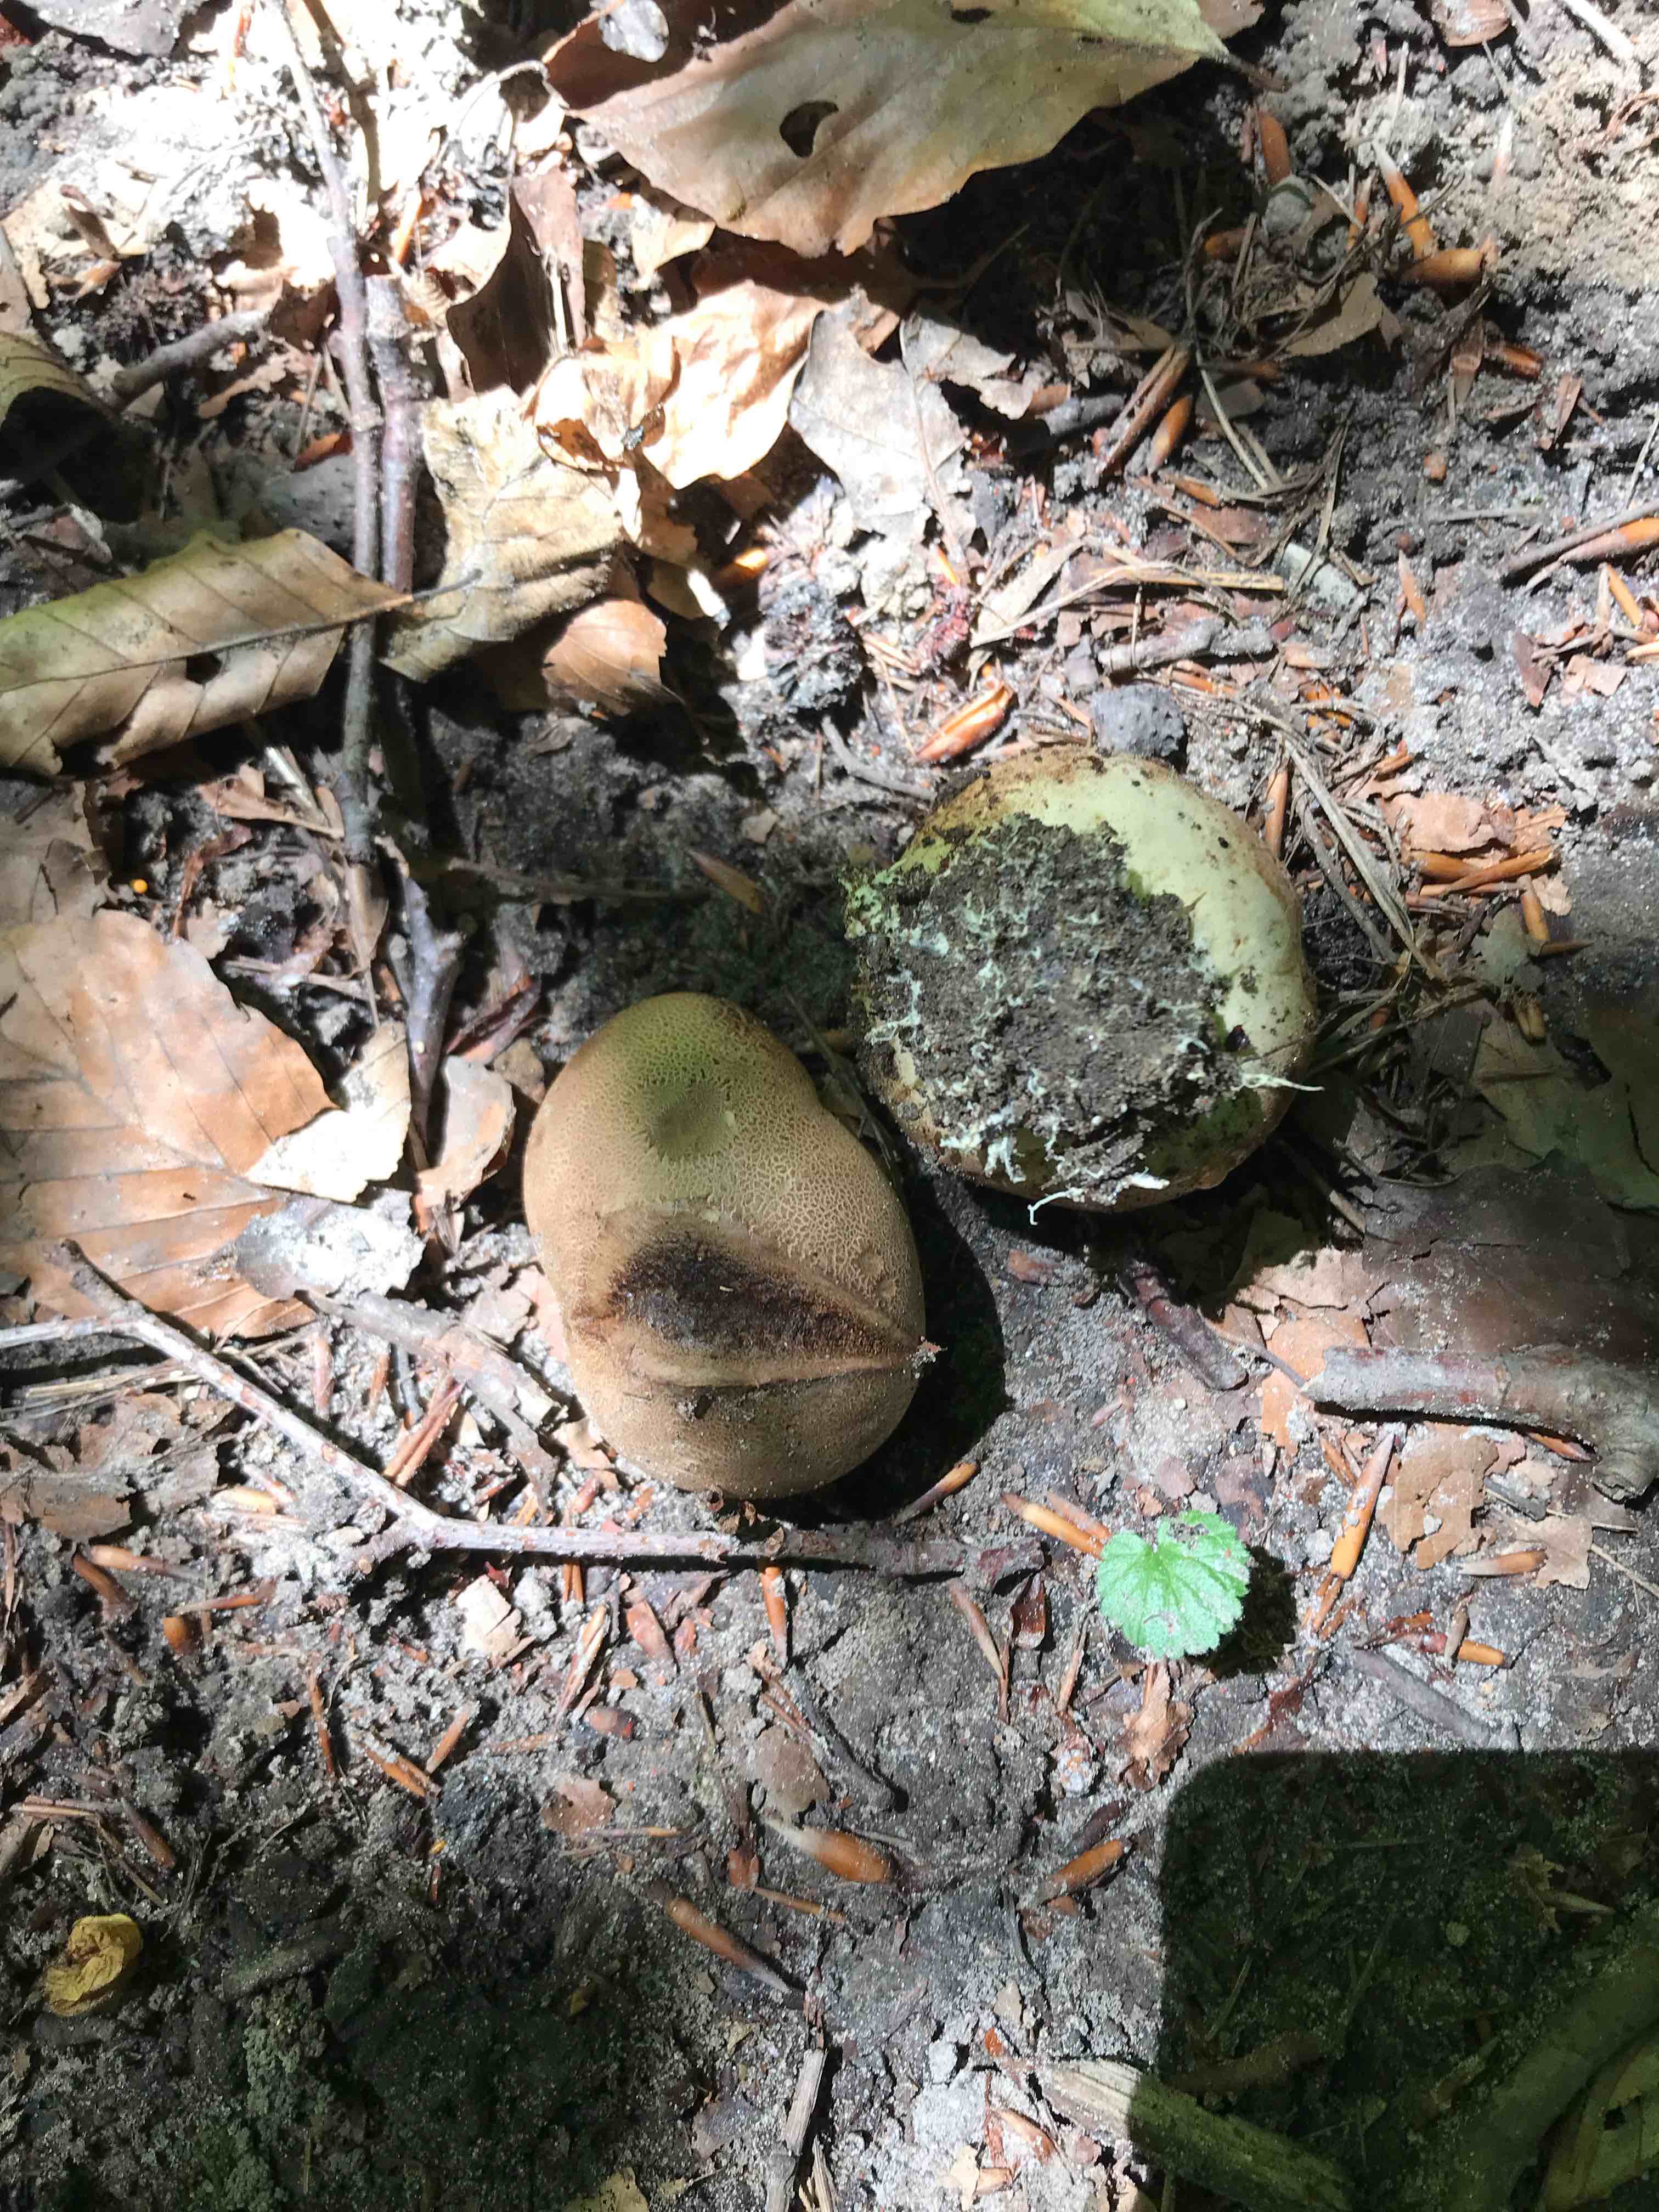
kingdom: Fungi
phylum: Basidiomycota
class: Agaricomycetes
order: Boletales
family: Sclerodermataceae
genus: Scleroderma
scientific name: Scleroderma citrinum
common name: almindelig bruskbold
